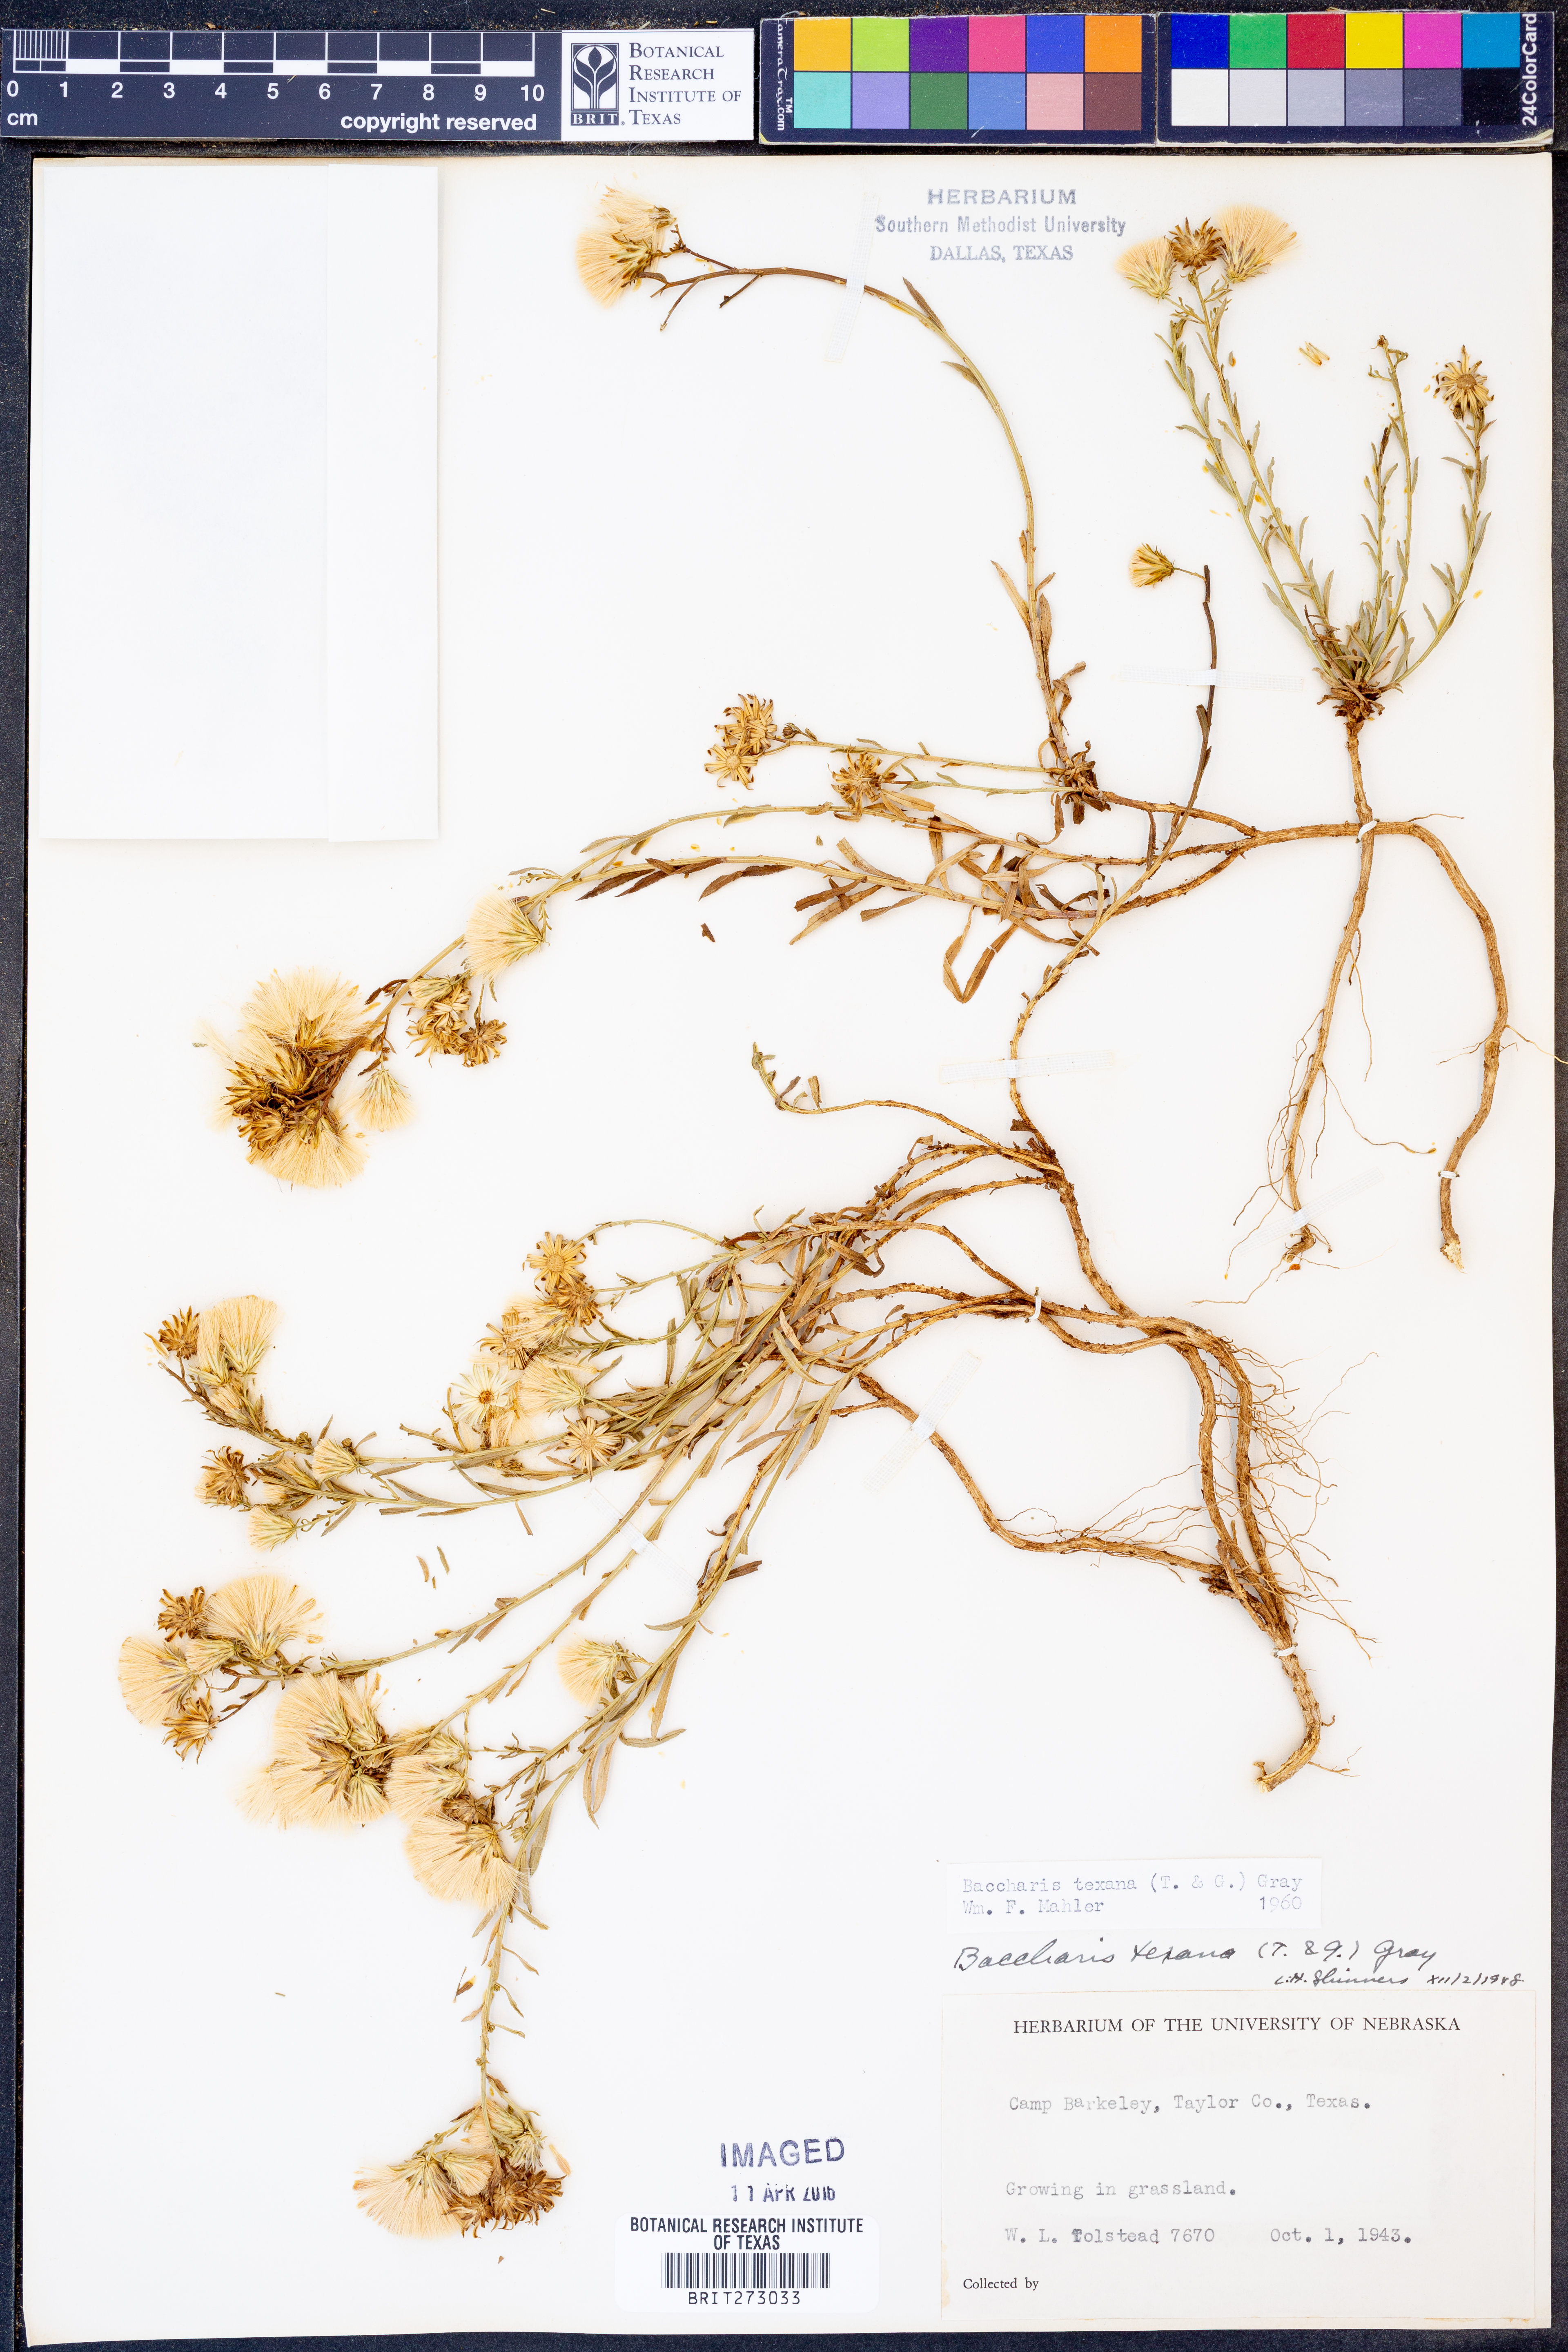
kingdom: Plantae
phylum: Tracheophyta
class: Magnoliopsida
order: Asterales
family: Asteraceae
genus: Baccharis
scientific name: Baccharis texana
